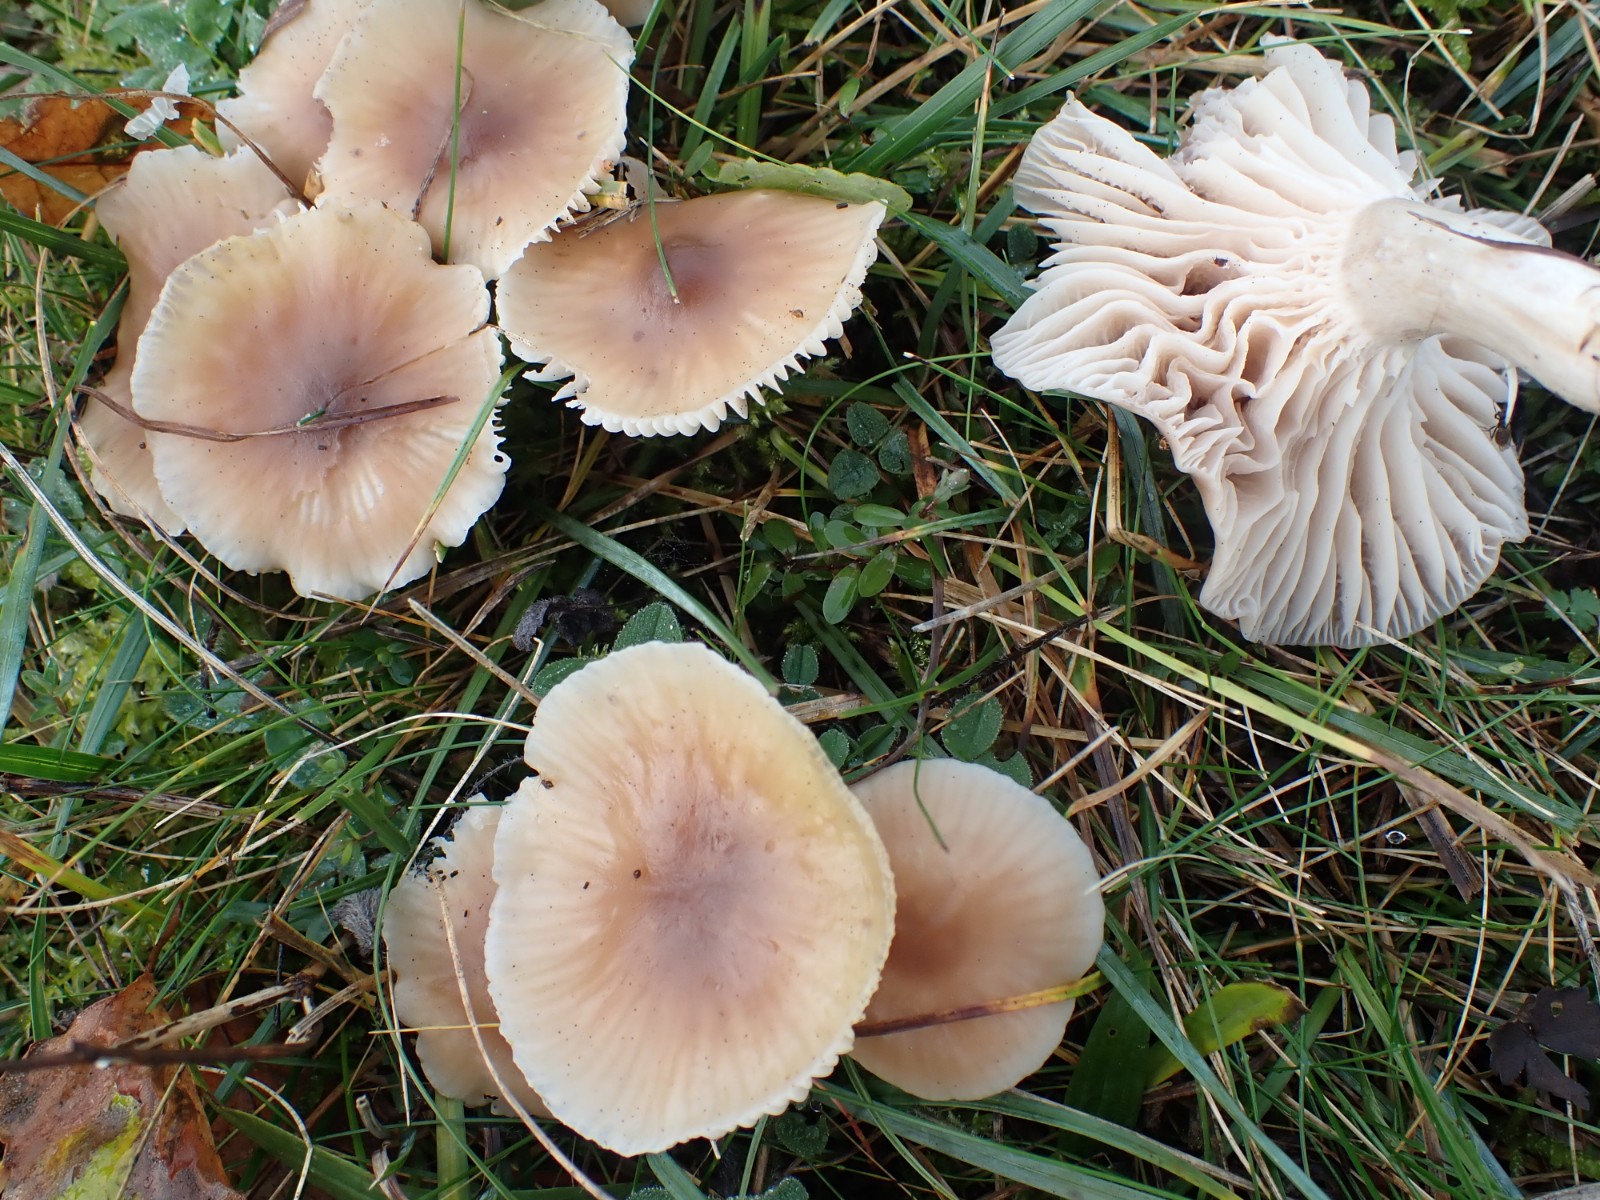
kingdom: Fungi
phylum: Basidiomycota
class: Agaricomycetes
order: Agaricales
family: Hygrophoraceae
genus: Cuphophyllus
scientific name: Cuphophyllus colemannianus
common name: rødbrun vokshat
